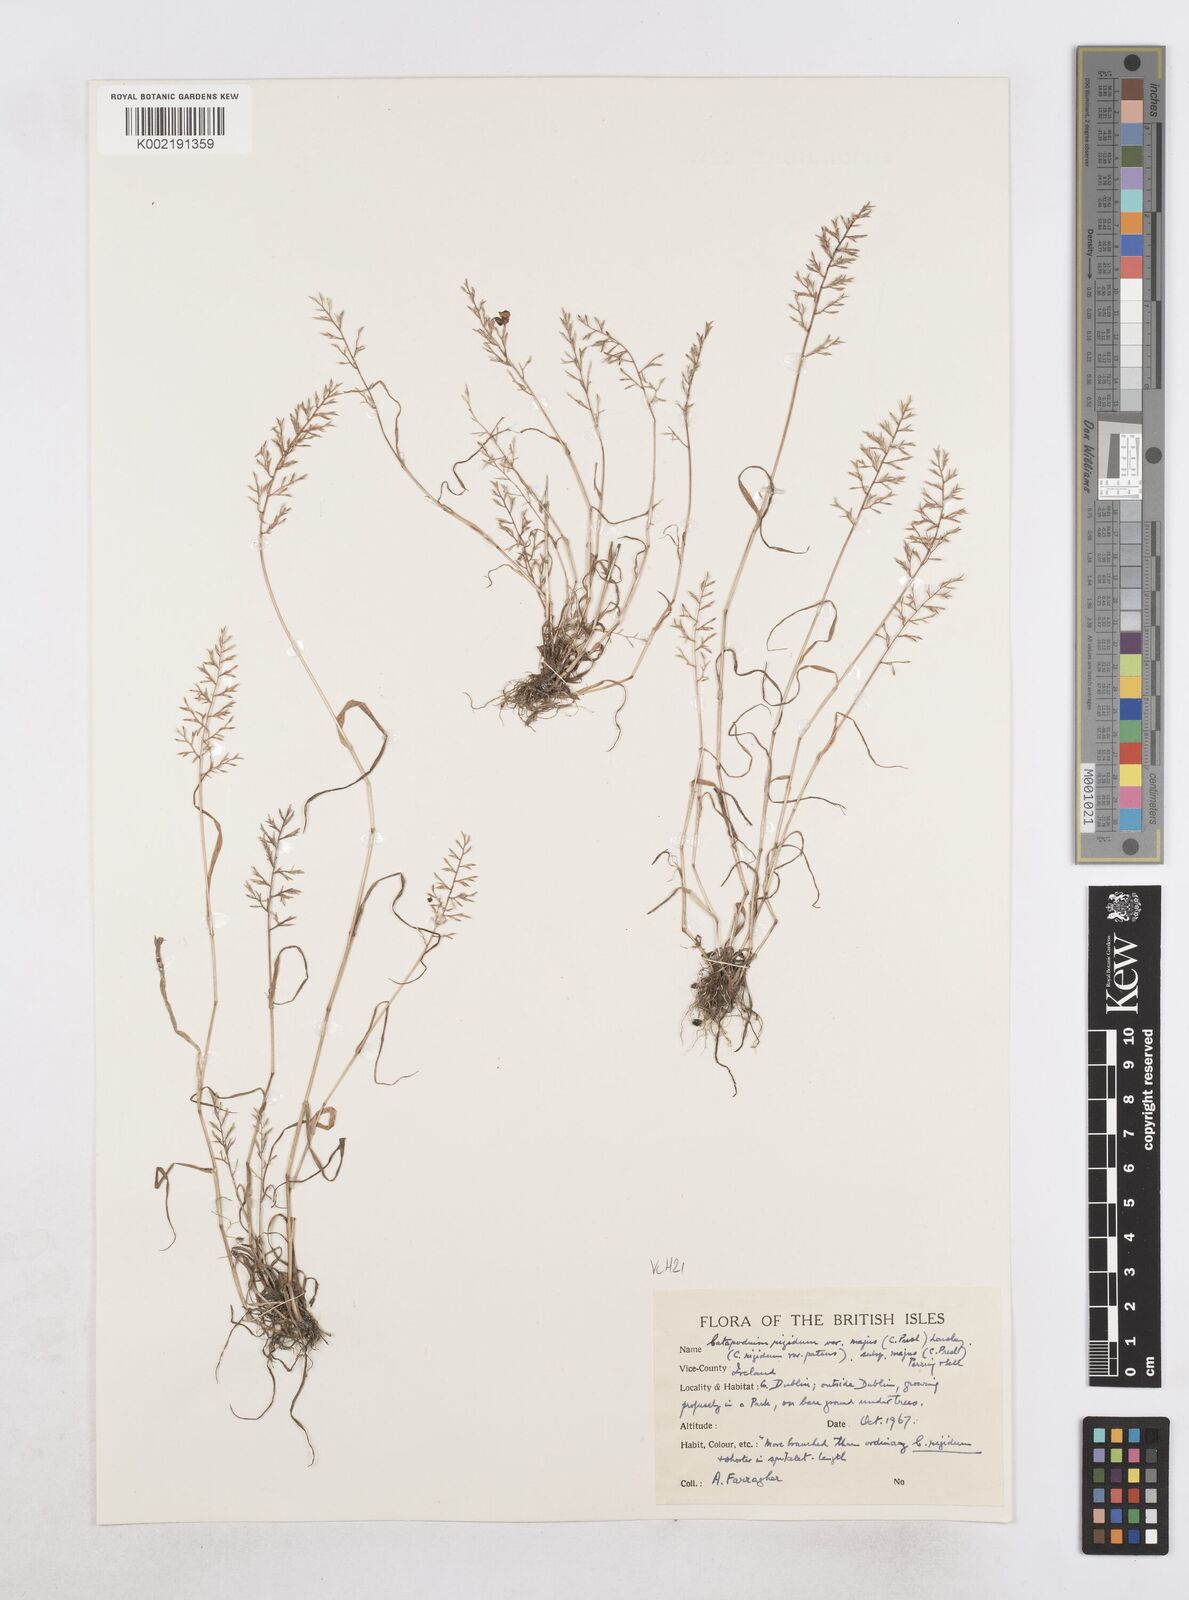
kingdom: Plantae
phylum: Tracheophyta
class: Liliopsida
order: Poales
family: Poaceae
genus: Catapodium
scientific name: Catapodium rigidum
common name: Fern-grass
